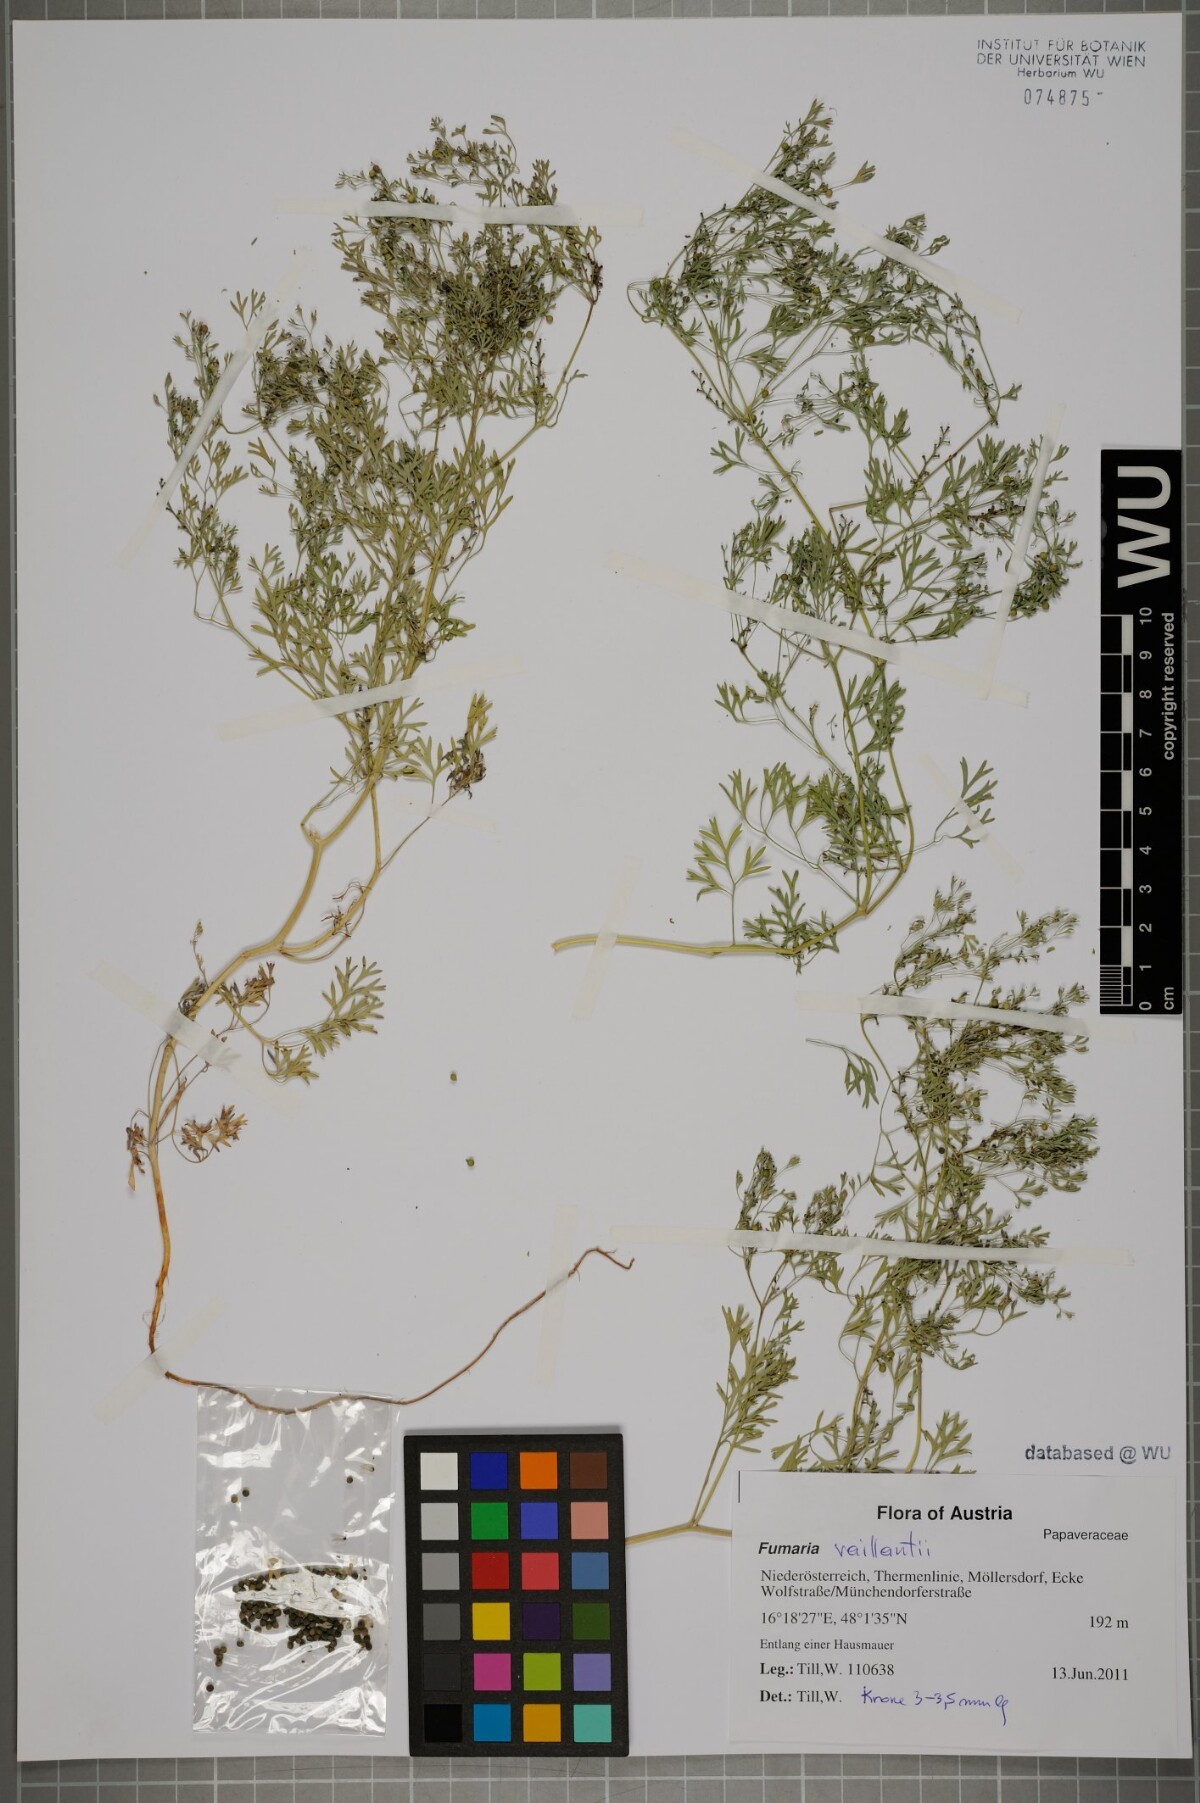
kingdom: Plantae
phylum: Tracheophyta
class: Magnoliopsida
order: Ranunculales
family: Papaveraceae
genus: Fumaria
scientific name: Fumaria vaillantii
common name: Few-flowered fumitory
